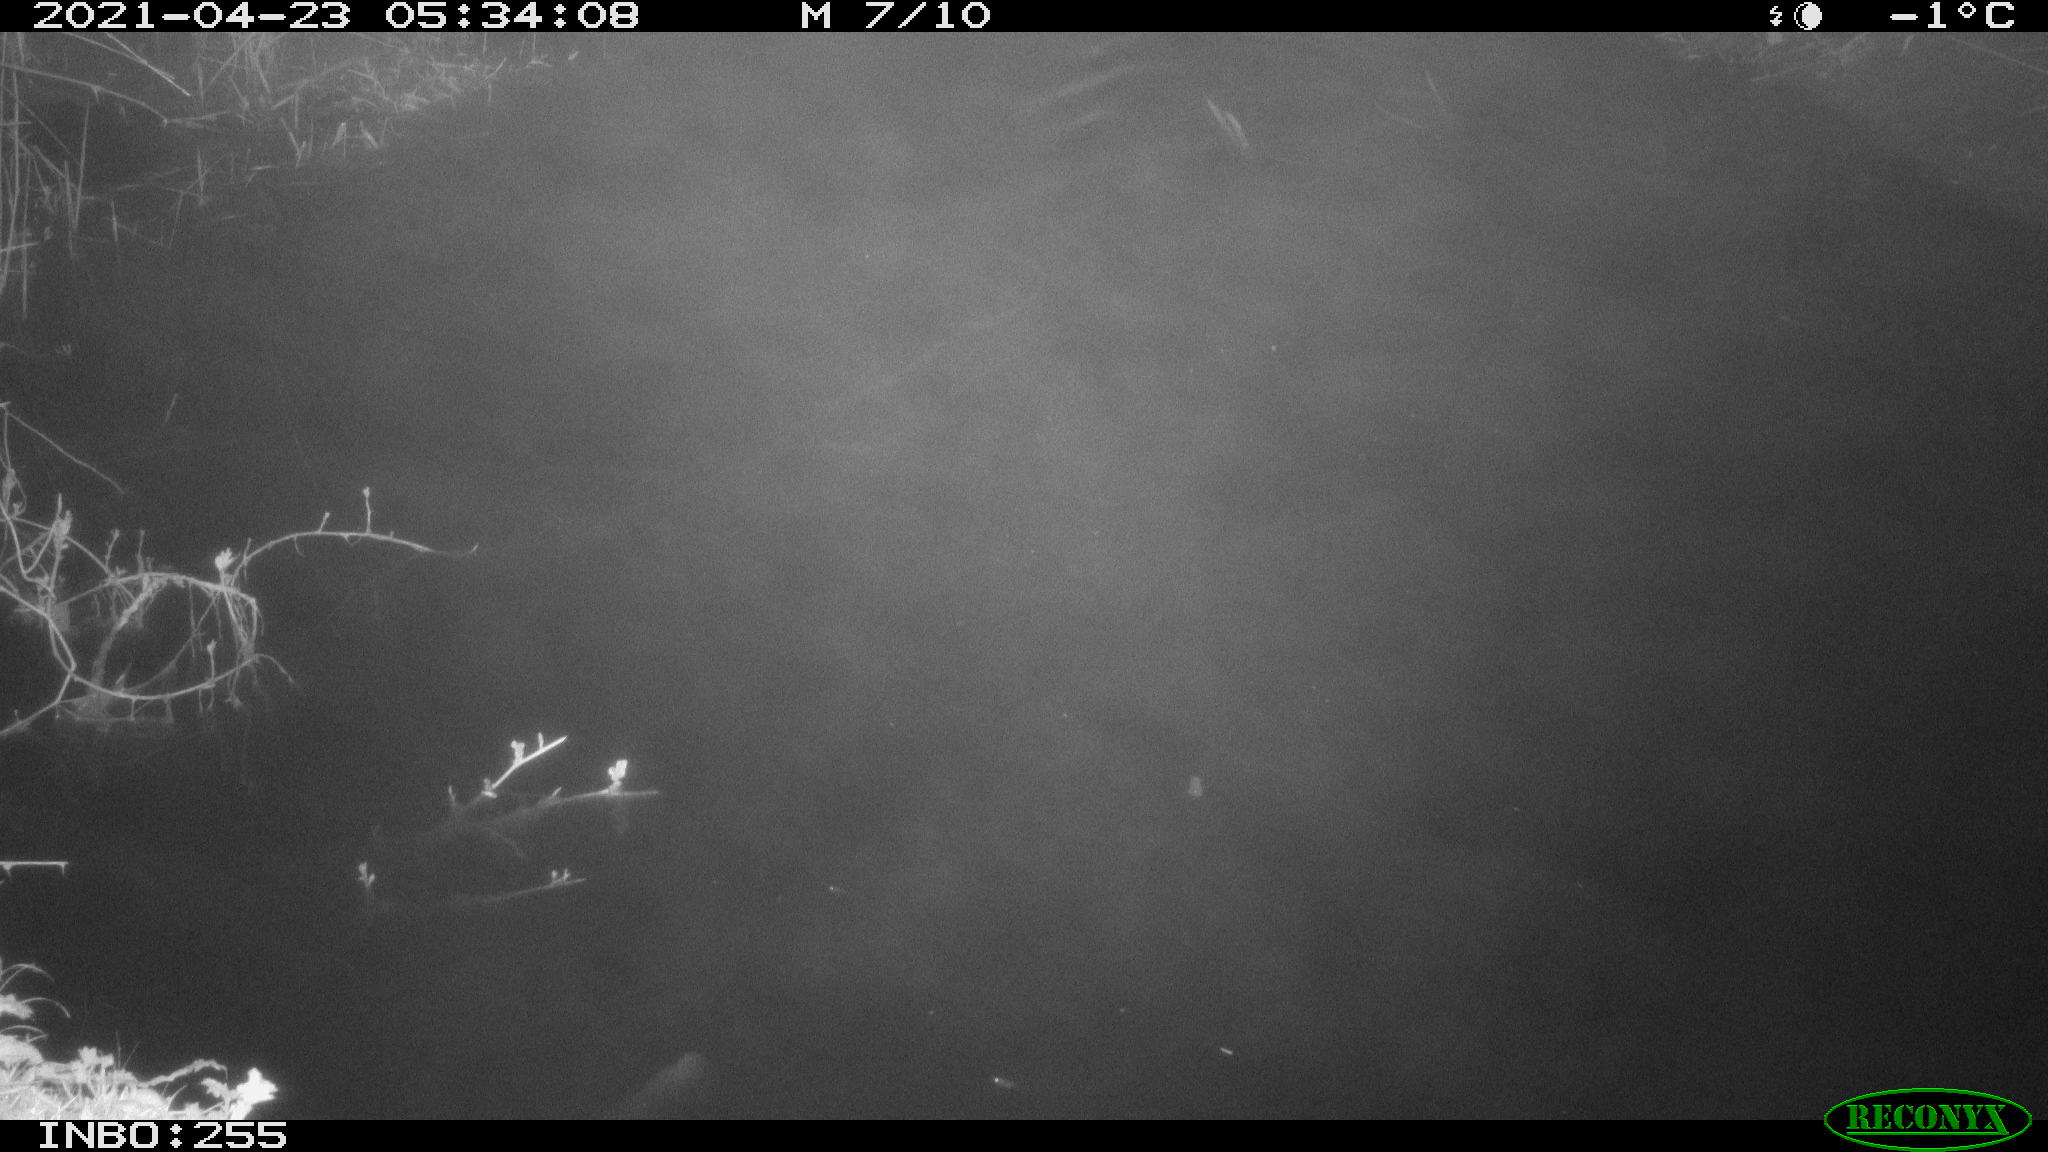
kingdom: Animalia
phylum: Chordata
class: Aves
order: Anseriformes
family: Anatidae
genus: Mareca
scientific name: Mareca strepera
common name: Gadwall
